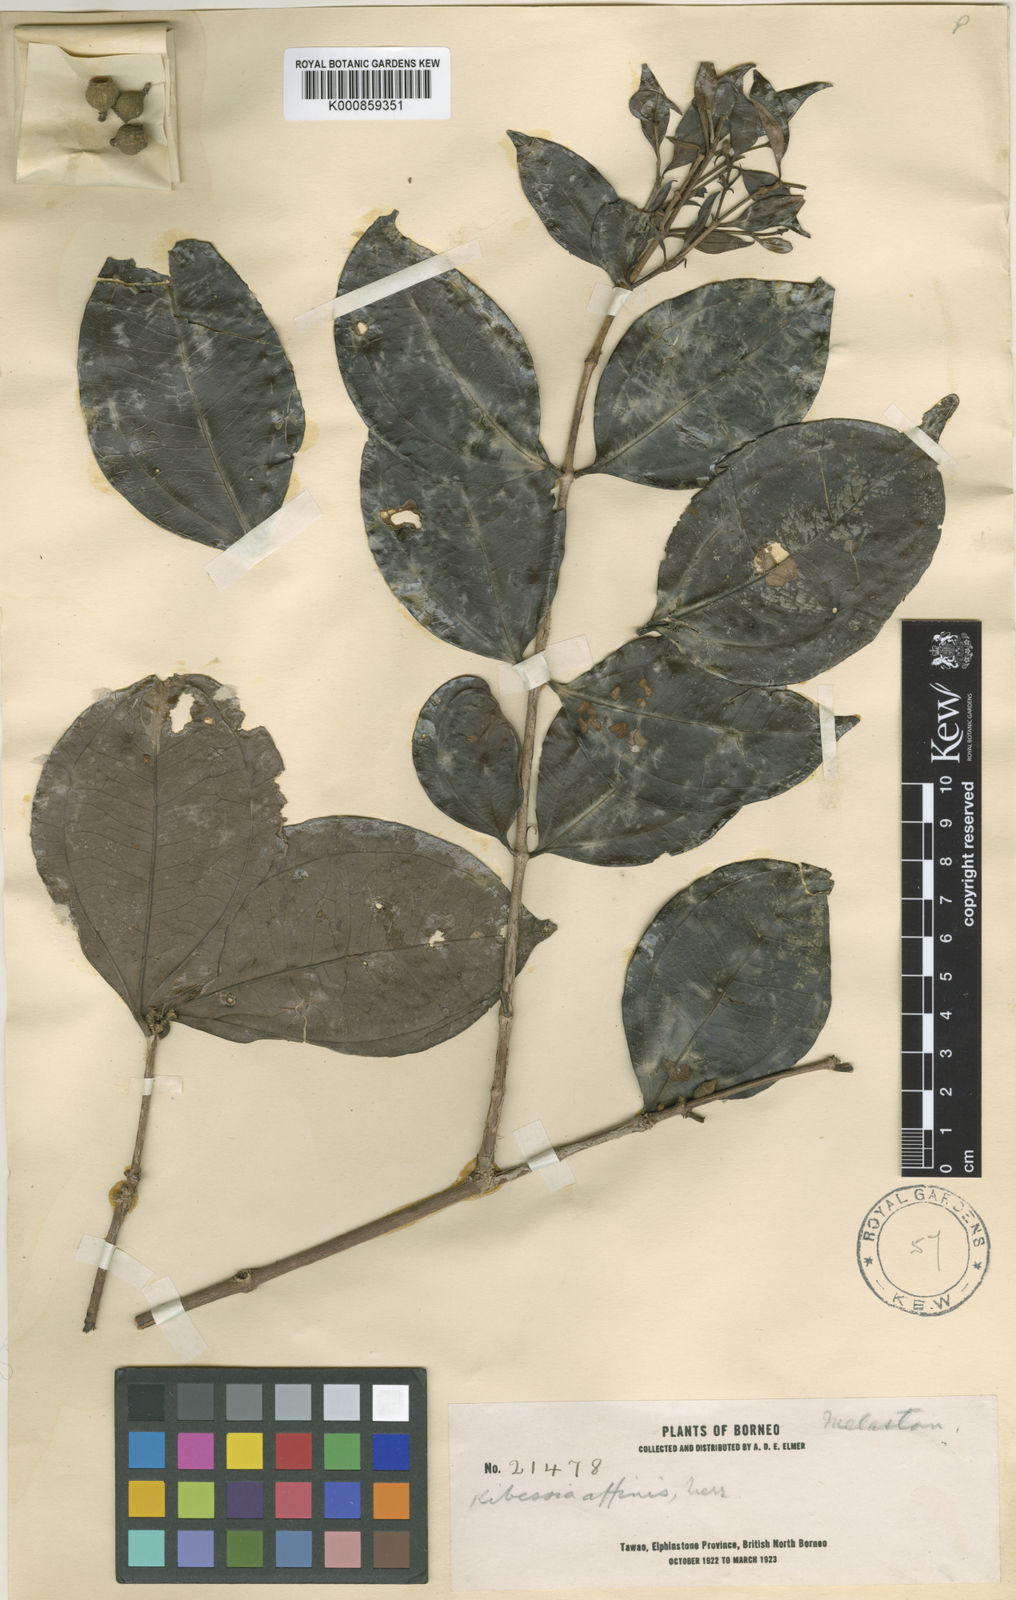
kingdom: Plantae
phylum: Tracheophyta
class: Magnoliopsida
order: Myrtales
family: Melastomataceae
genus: Pternandra
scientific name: Pternandra rostrata
